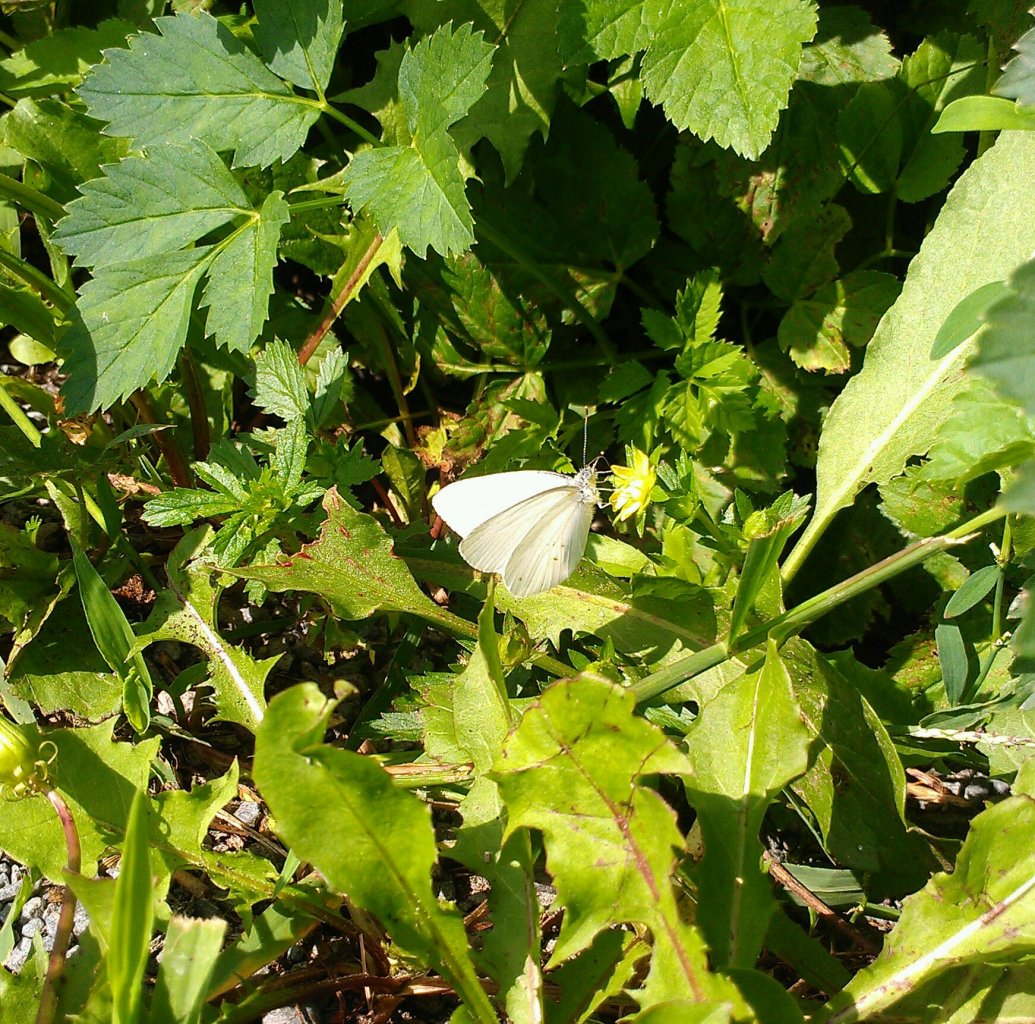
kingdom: Animalia
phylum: Arthropoda
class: Insecta
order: Lepidoptera
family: Pieridae
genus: Pieris
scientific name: Pieris oleracea
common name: Mustard White
